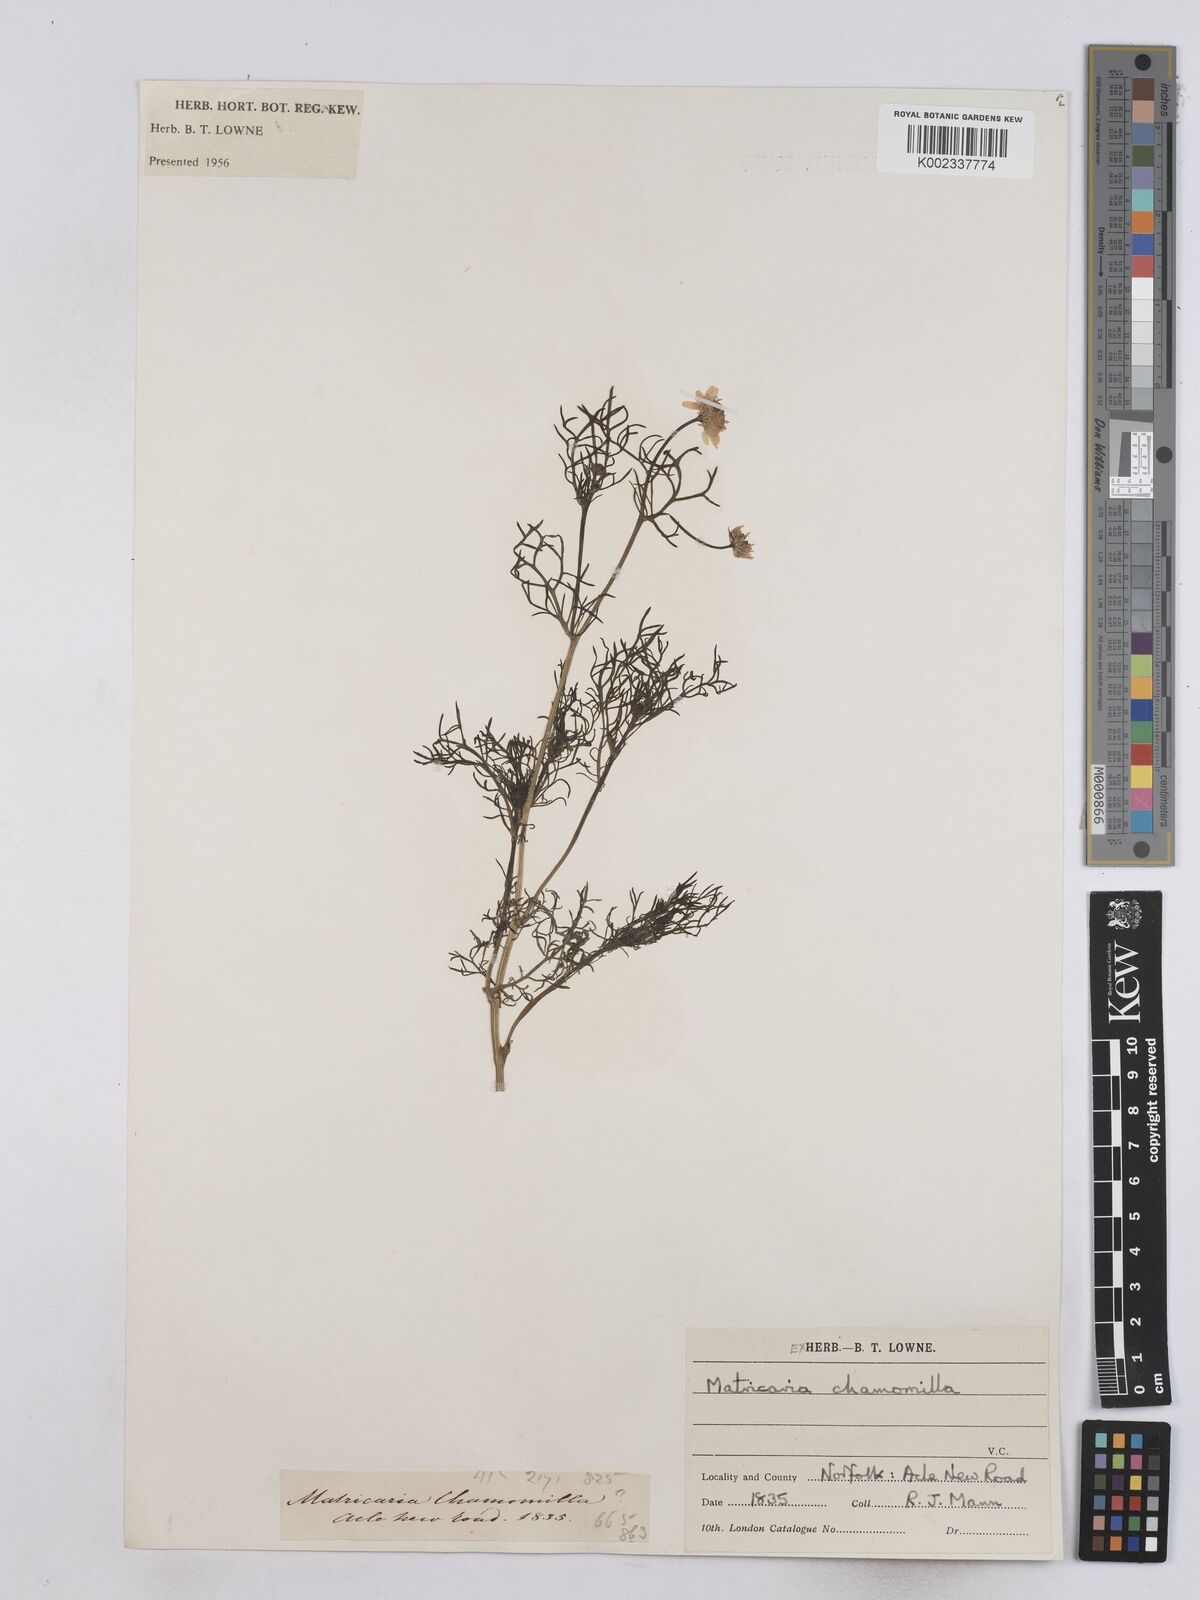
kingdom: Plantae
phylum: Tracheophyta
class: Magnoliopsida
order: Asterales
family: Asteraceae
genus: Matricaria
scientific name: Matricaria chamomilla
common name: Scented mayweed
